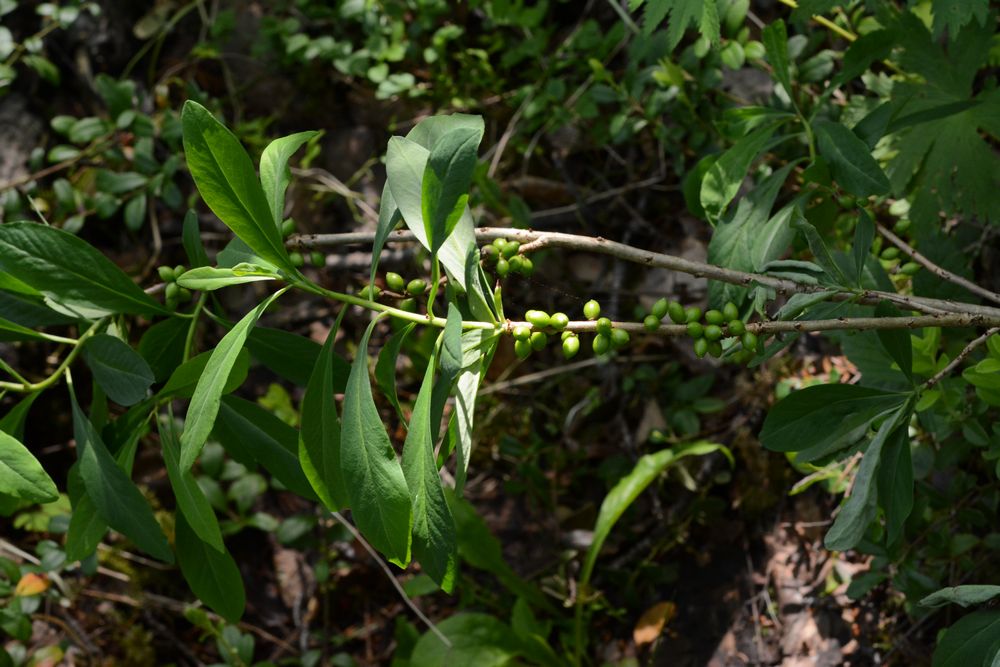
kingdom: Plantae
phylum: Tracheophyta
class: Magnoliopsida
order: Malvales
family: Thymelaeaceae
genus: Daphne
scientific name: Daphne mezereum
